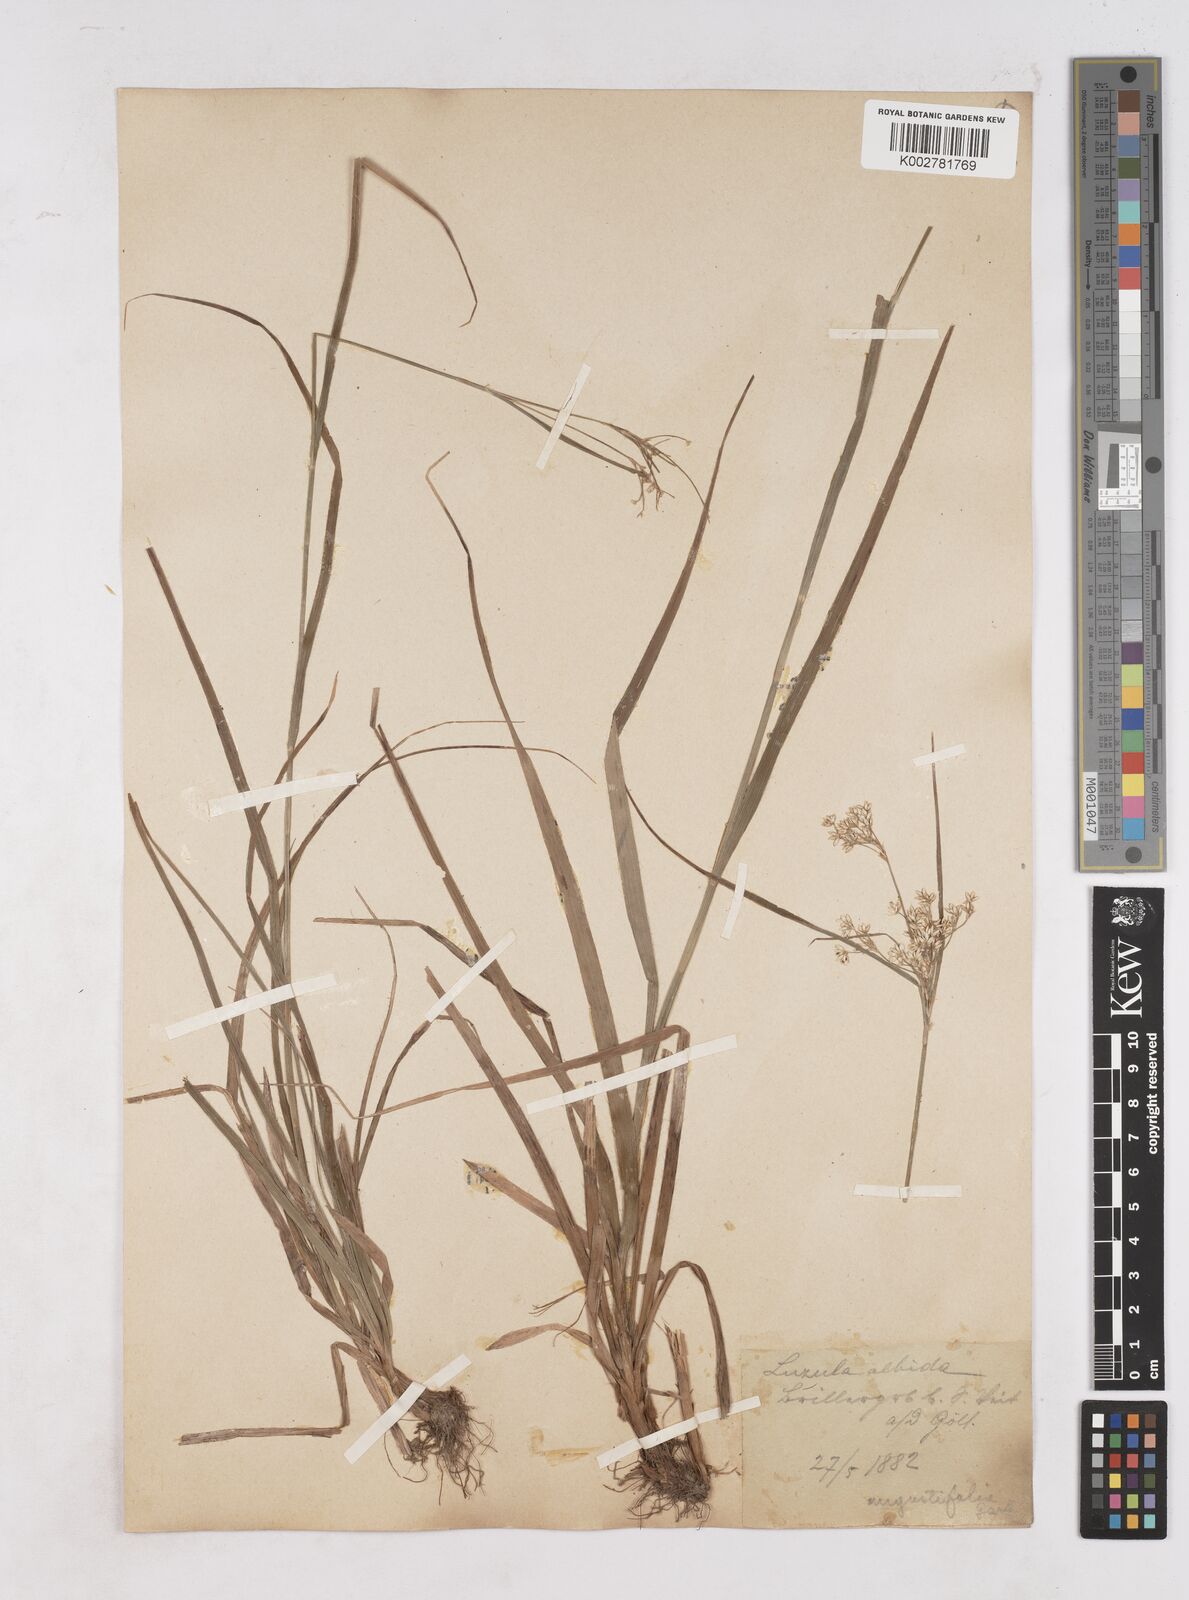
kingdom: Plantae
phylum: Tracheophyta
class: Liliopsida
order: Poales
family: Juncaceae
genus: Luzula
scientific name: Luzula luzuloides
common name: White wood-rush
